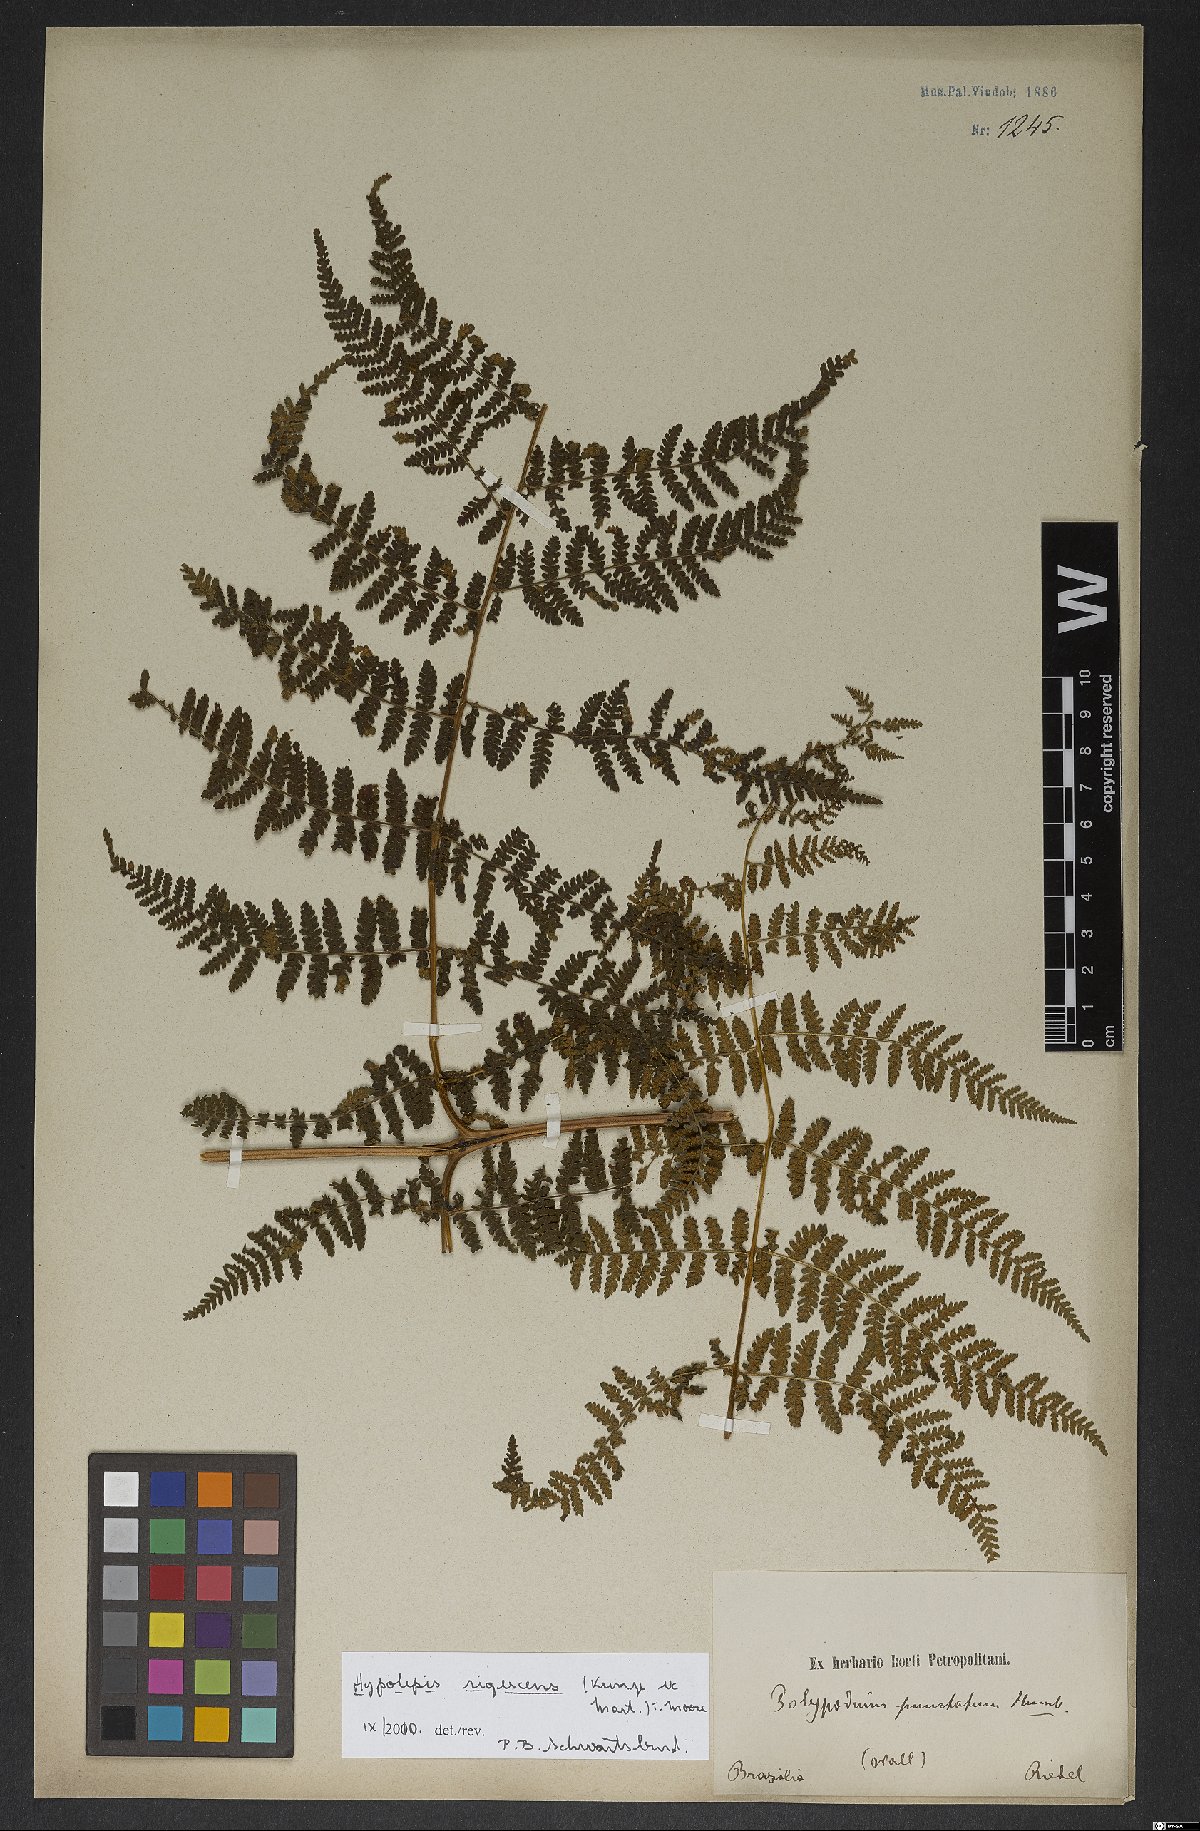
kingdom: Plantae
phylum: Tracheophyta
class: Polypodiopsida
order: Polypodiales
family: Dennstaedtiaceae
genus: Hypolepis
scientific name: Hypolepis rigescens
